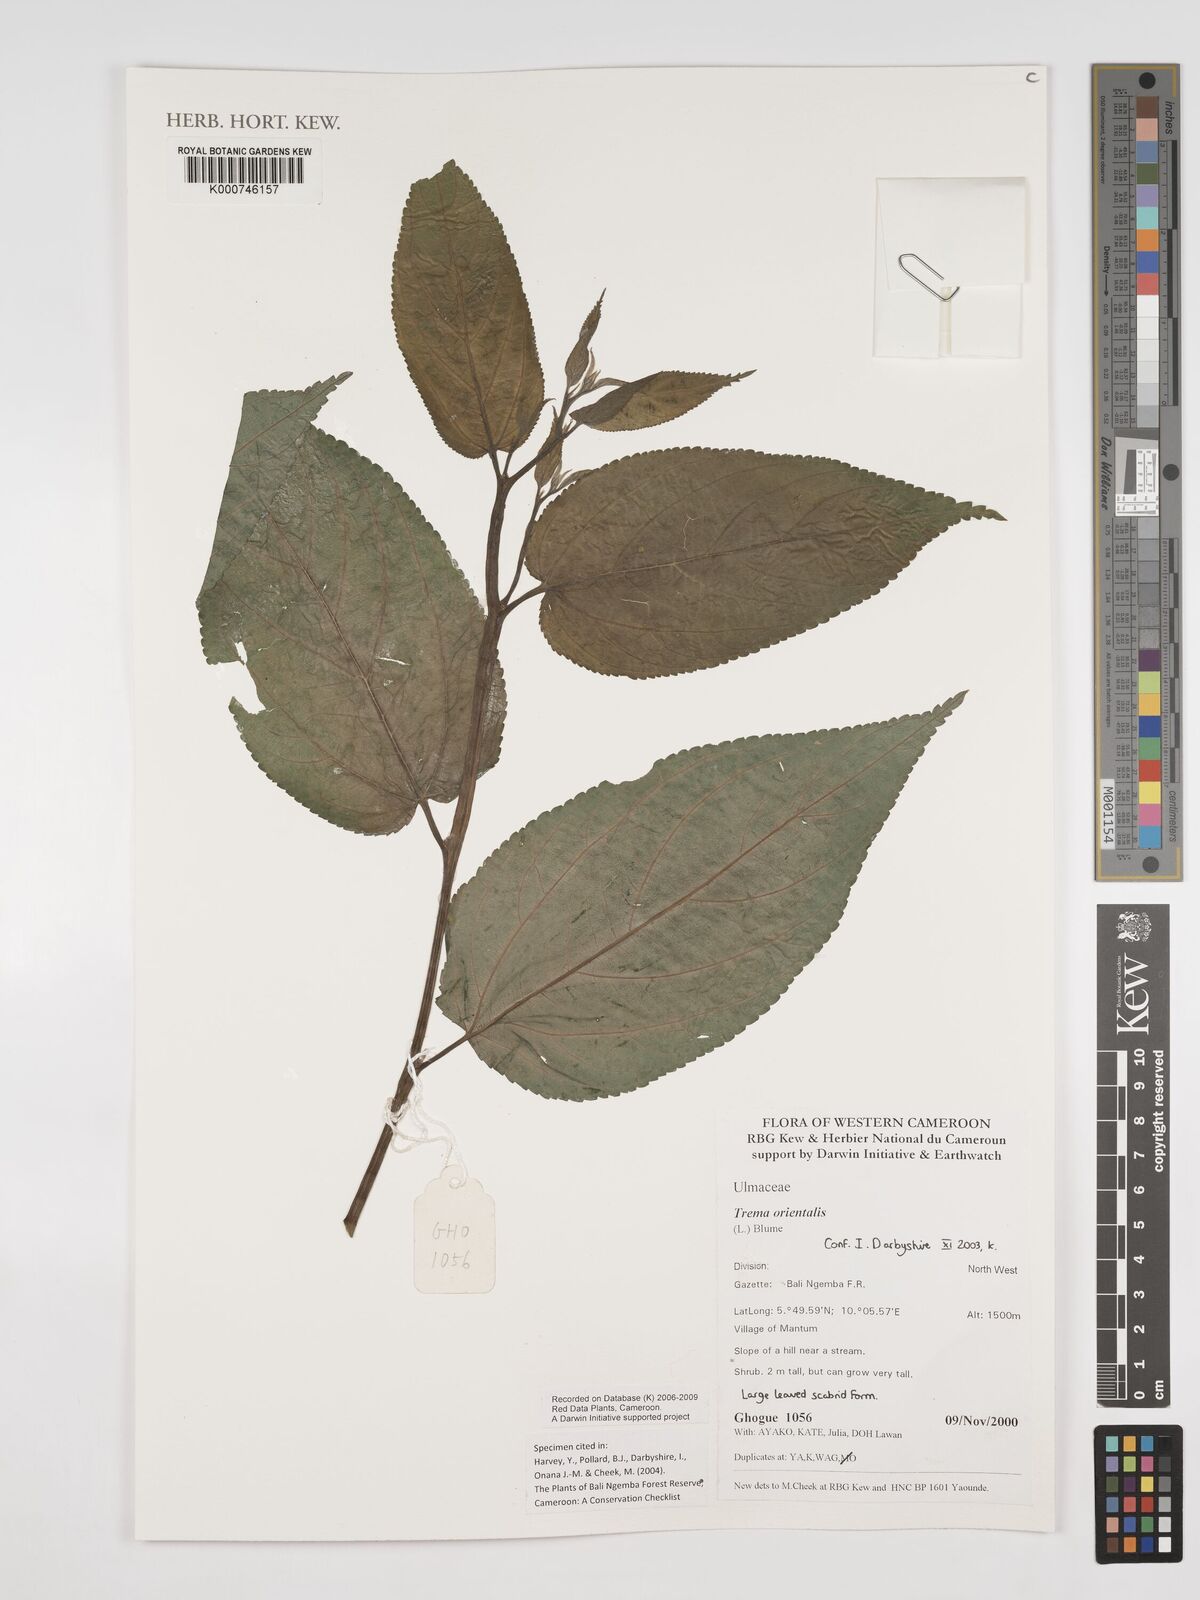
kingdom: Plantae
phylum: Tracheophyta
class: Magnoliopsida
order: Rosales
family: Cannabaceae
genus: Trema
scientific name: Trema
